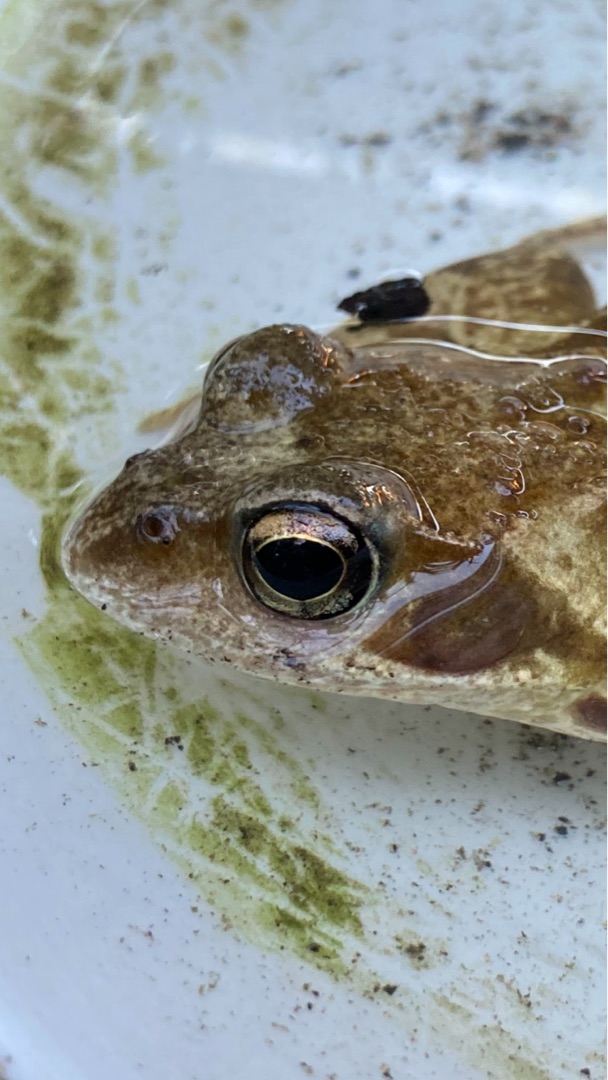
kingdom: Animalia
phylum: Chordata
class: Amphibia
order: Anura
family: Ranidae
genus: Rana
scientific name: Rana temporaria
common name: Butsnudet frø
